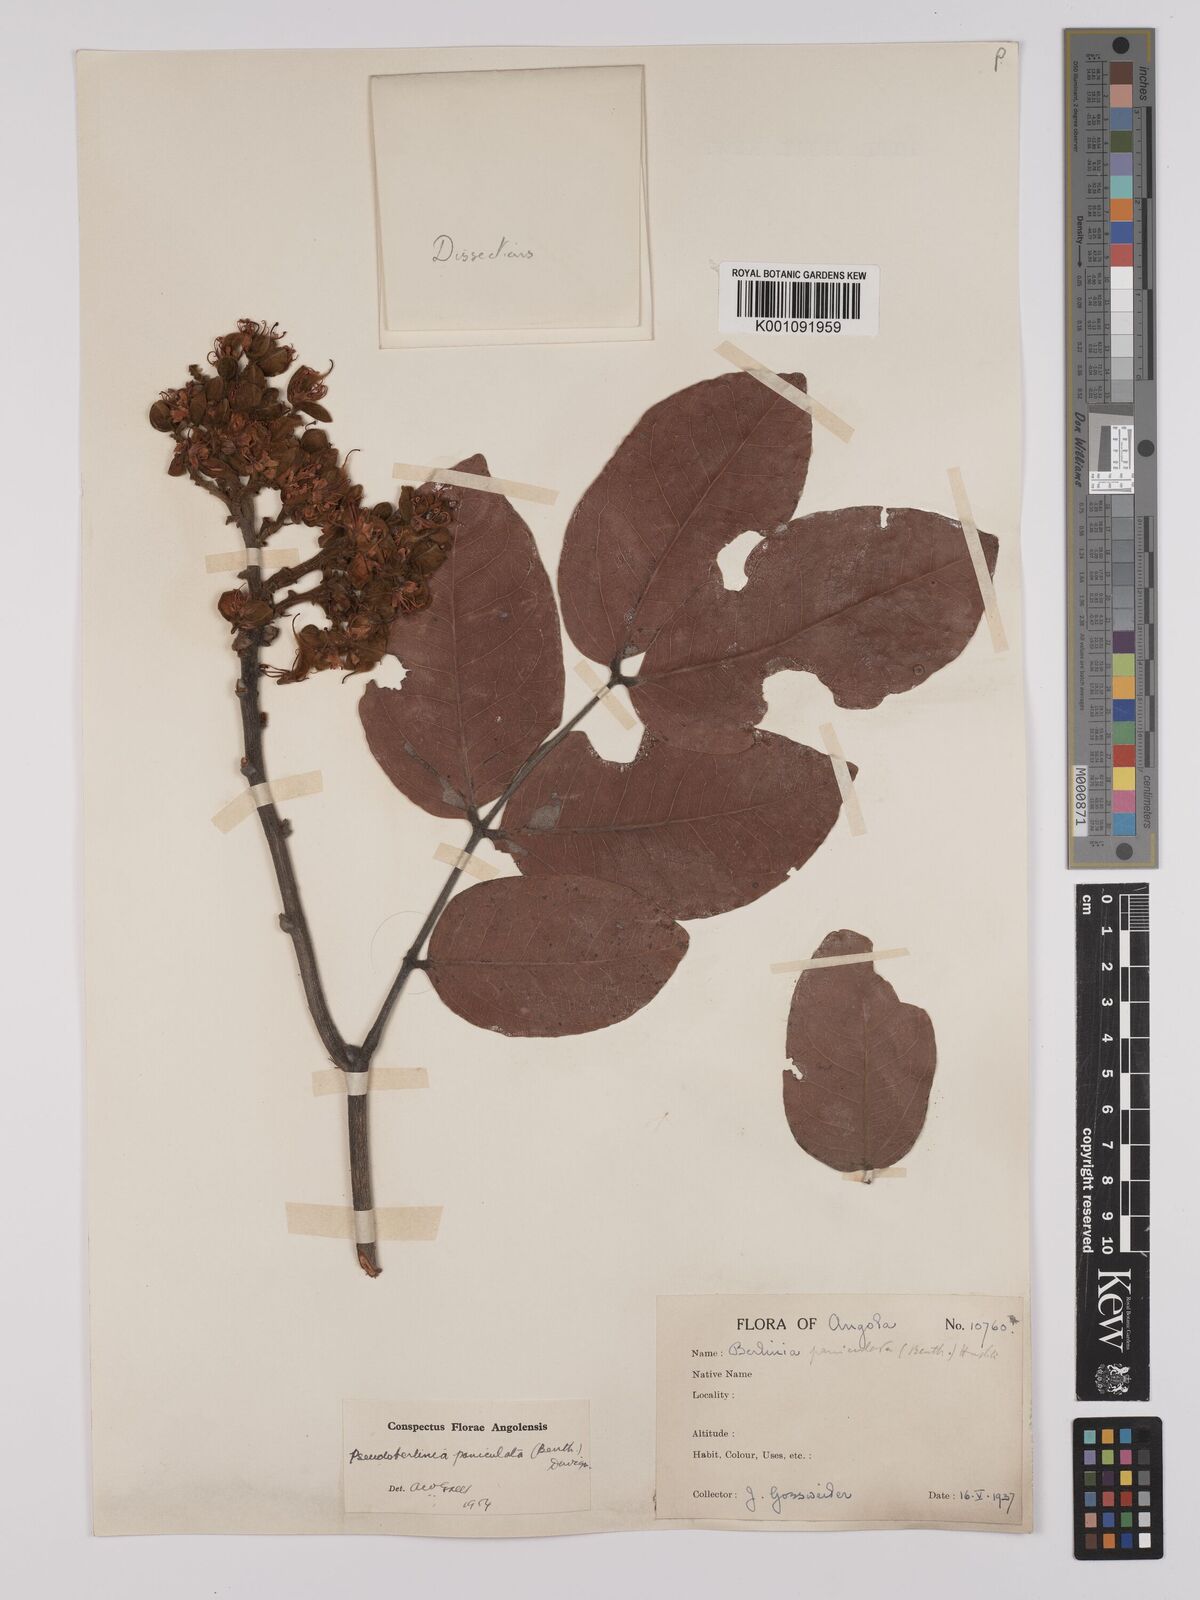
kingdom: Plantae
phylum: Tracheophyta
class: Magnoliopsida
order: Fabales
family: Fabaceae
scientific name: Fabaceae
